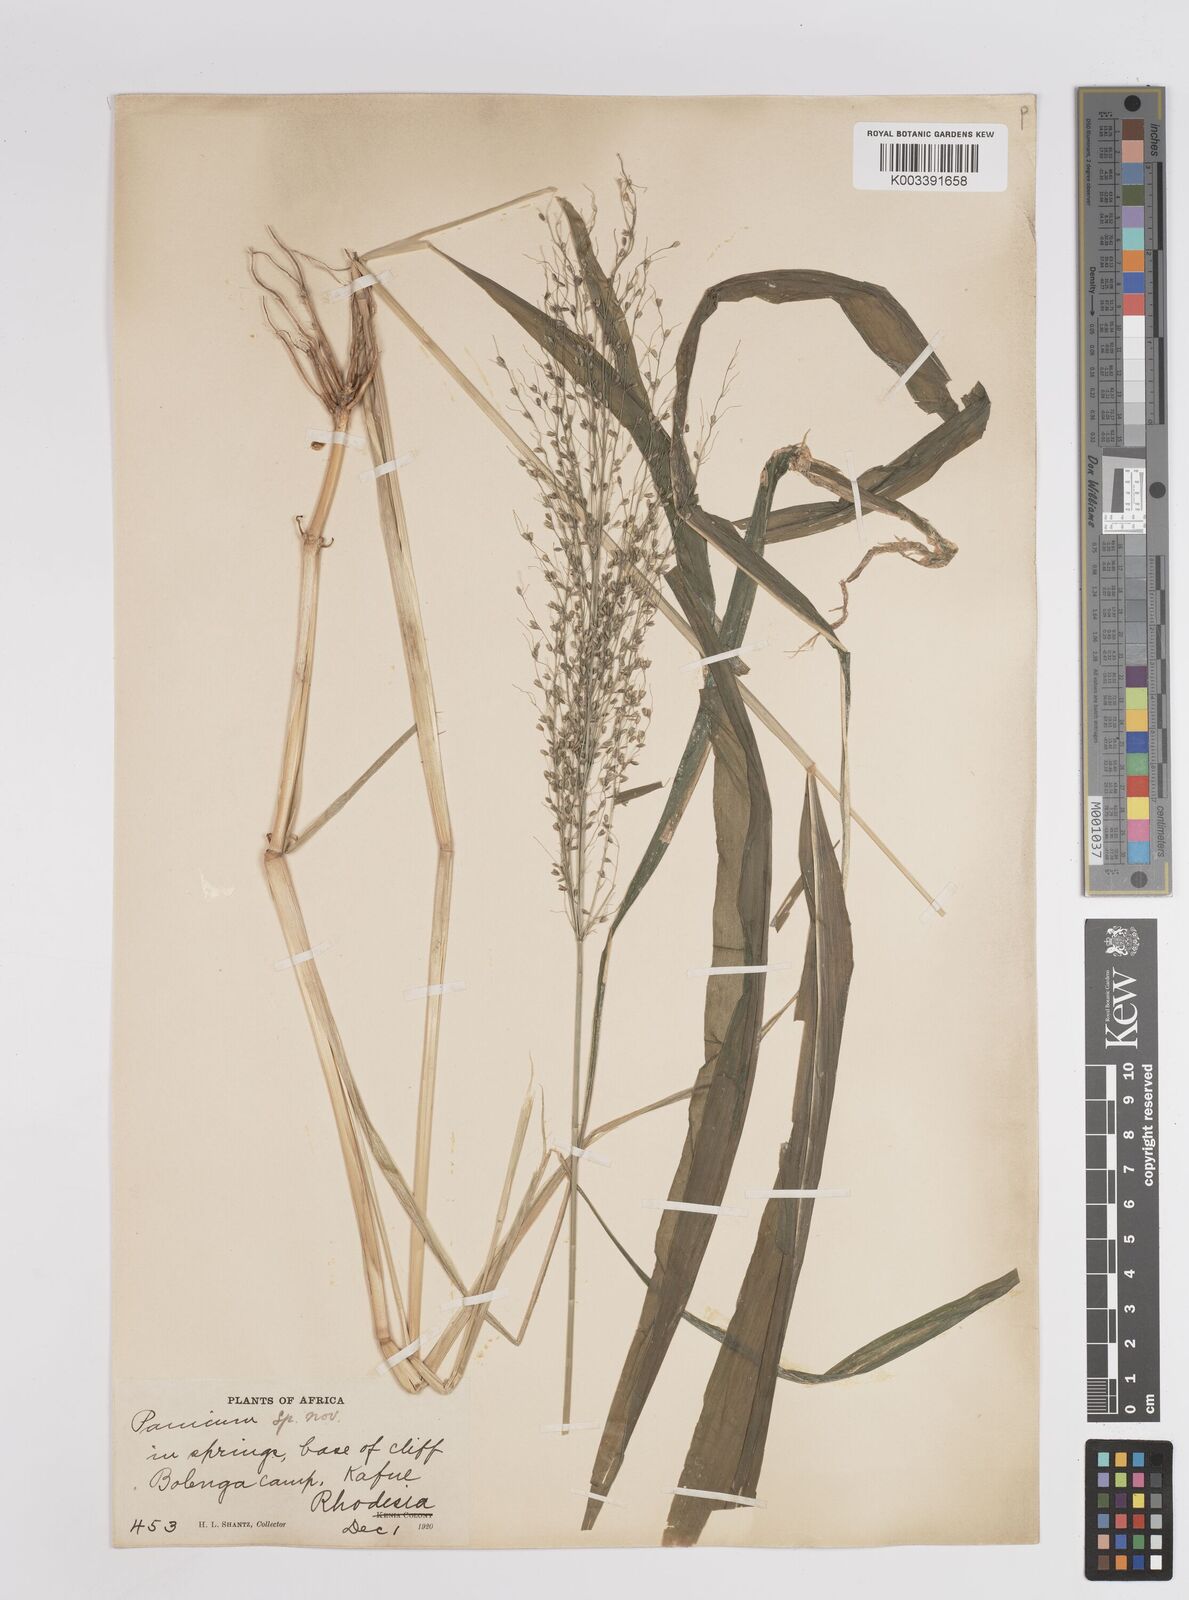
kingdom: Plantae
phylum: Tracheophyta
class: Liliopsida
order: Poales
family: Poaceae
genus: Megathyrsus
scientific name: Megathyrsus maximus
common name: Guineagrass
